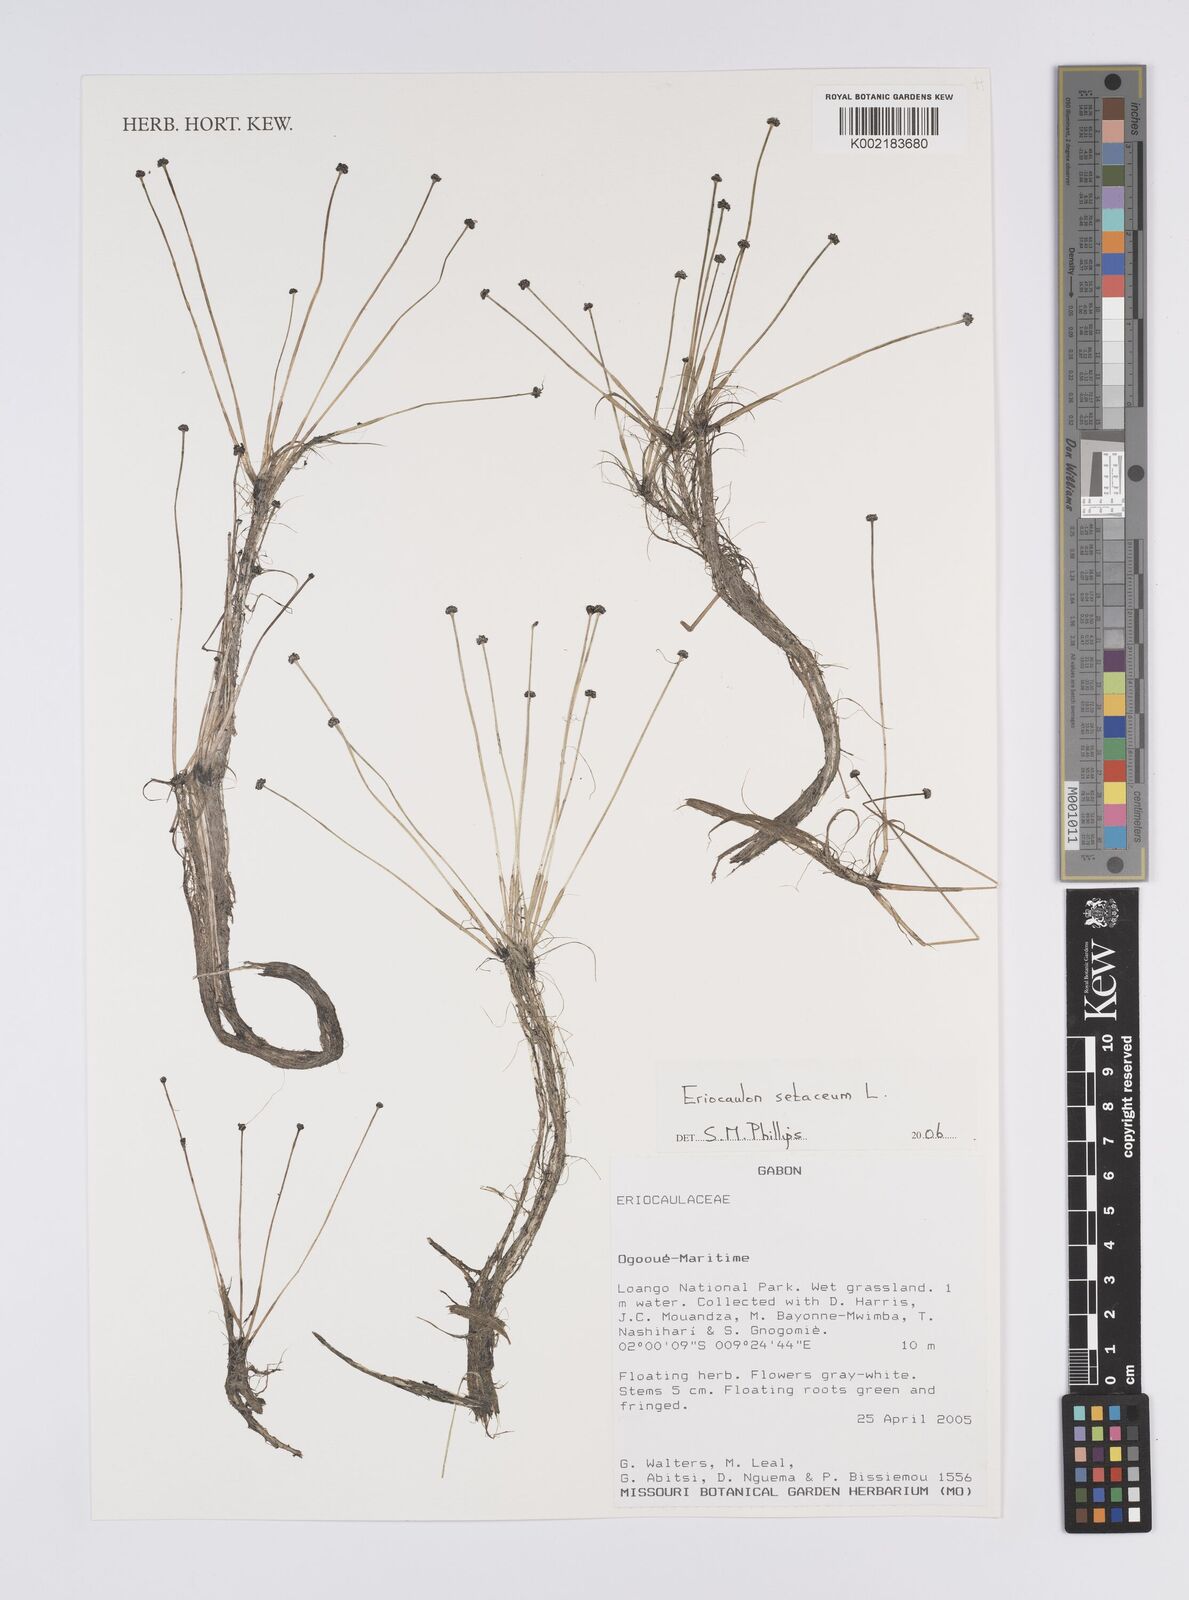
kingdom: Plantae
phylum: Tracheophyta
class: Liliopsida
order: Poales
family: Eriocaulaceae
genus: Eriocaulon
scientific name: Eriocaulon setaceum
